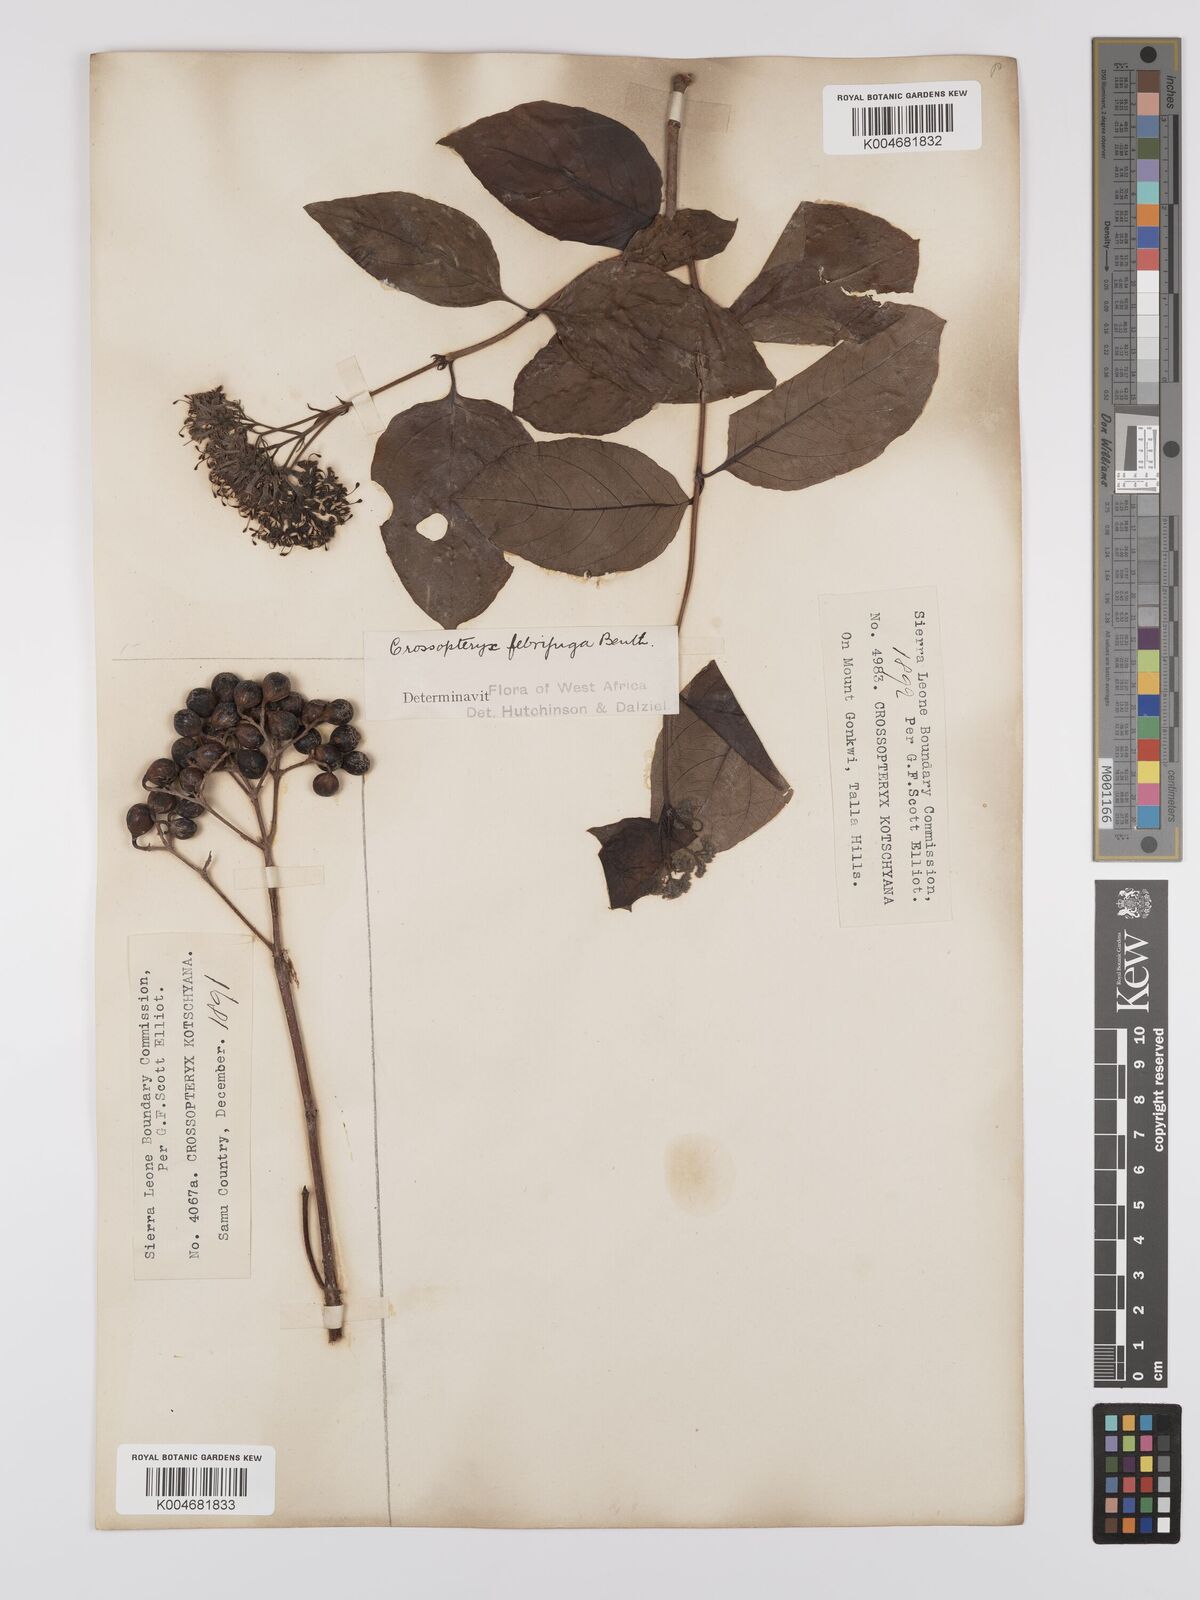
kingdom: Plantae
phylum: Tracheophyta
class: Magnoliopsida
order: Gentianales
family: Rubiaceae
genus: Crossopteryx
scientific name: Crossopteryx febrifuga
